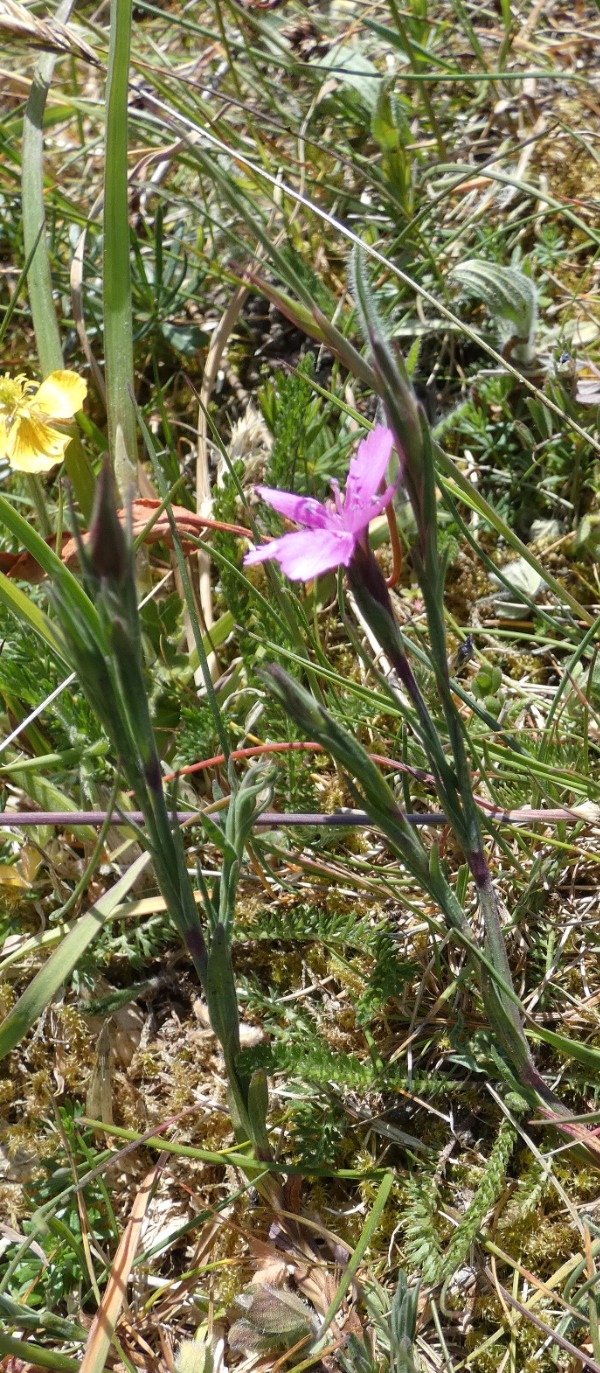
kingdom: Plantae
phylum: Tracheophyta
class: Magnoliopsida
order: Caryophyllales
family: Caryophyllaceae
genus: Dianthus
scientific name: Dianthus deltoides
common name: Bakke-nellike
